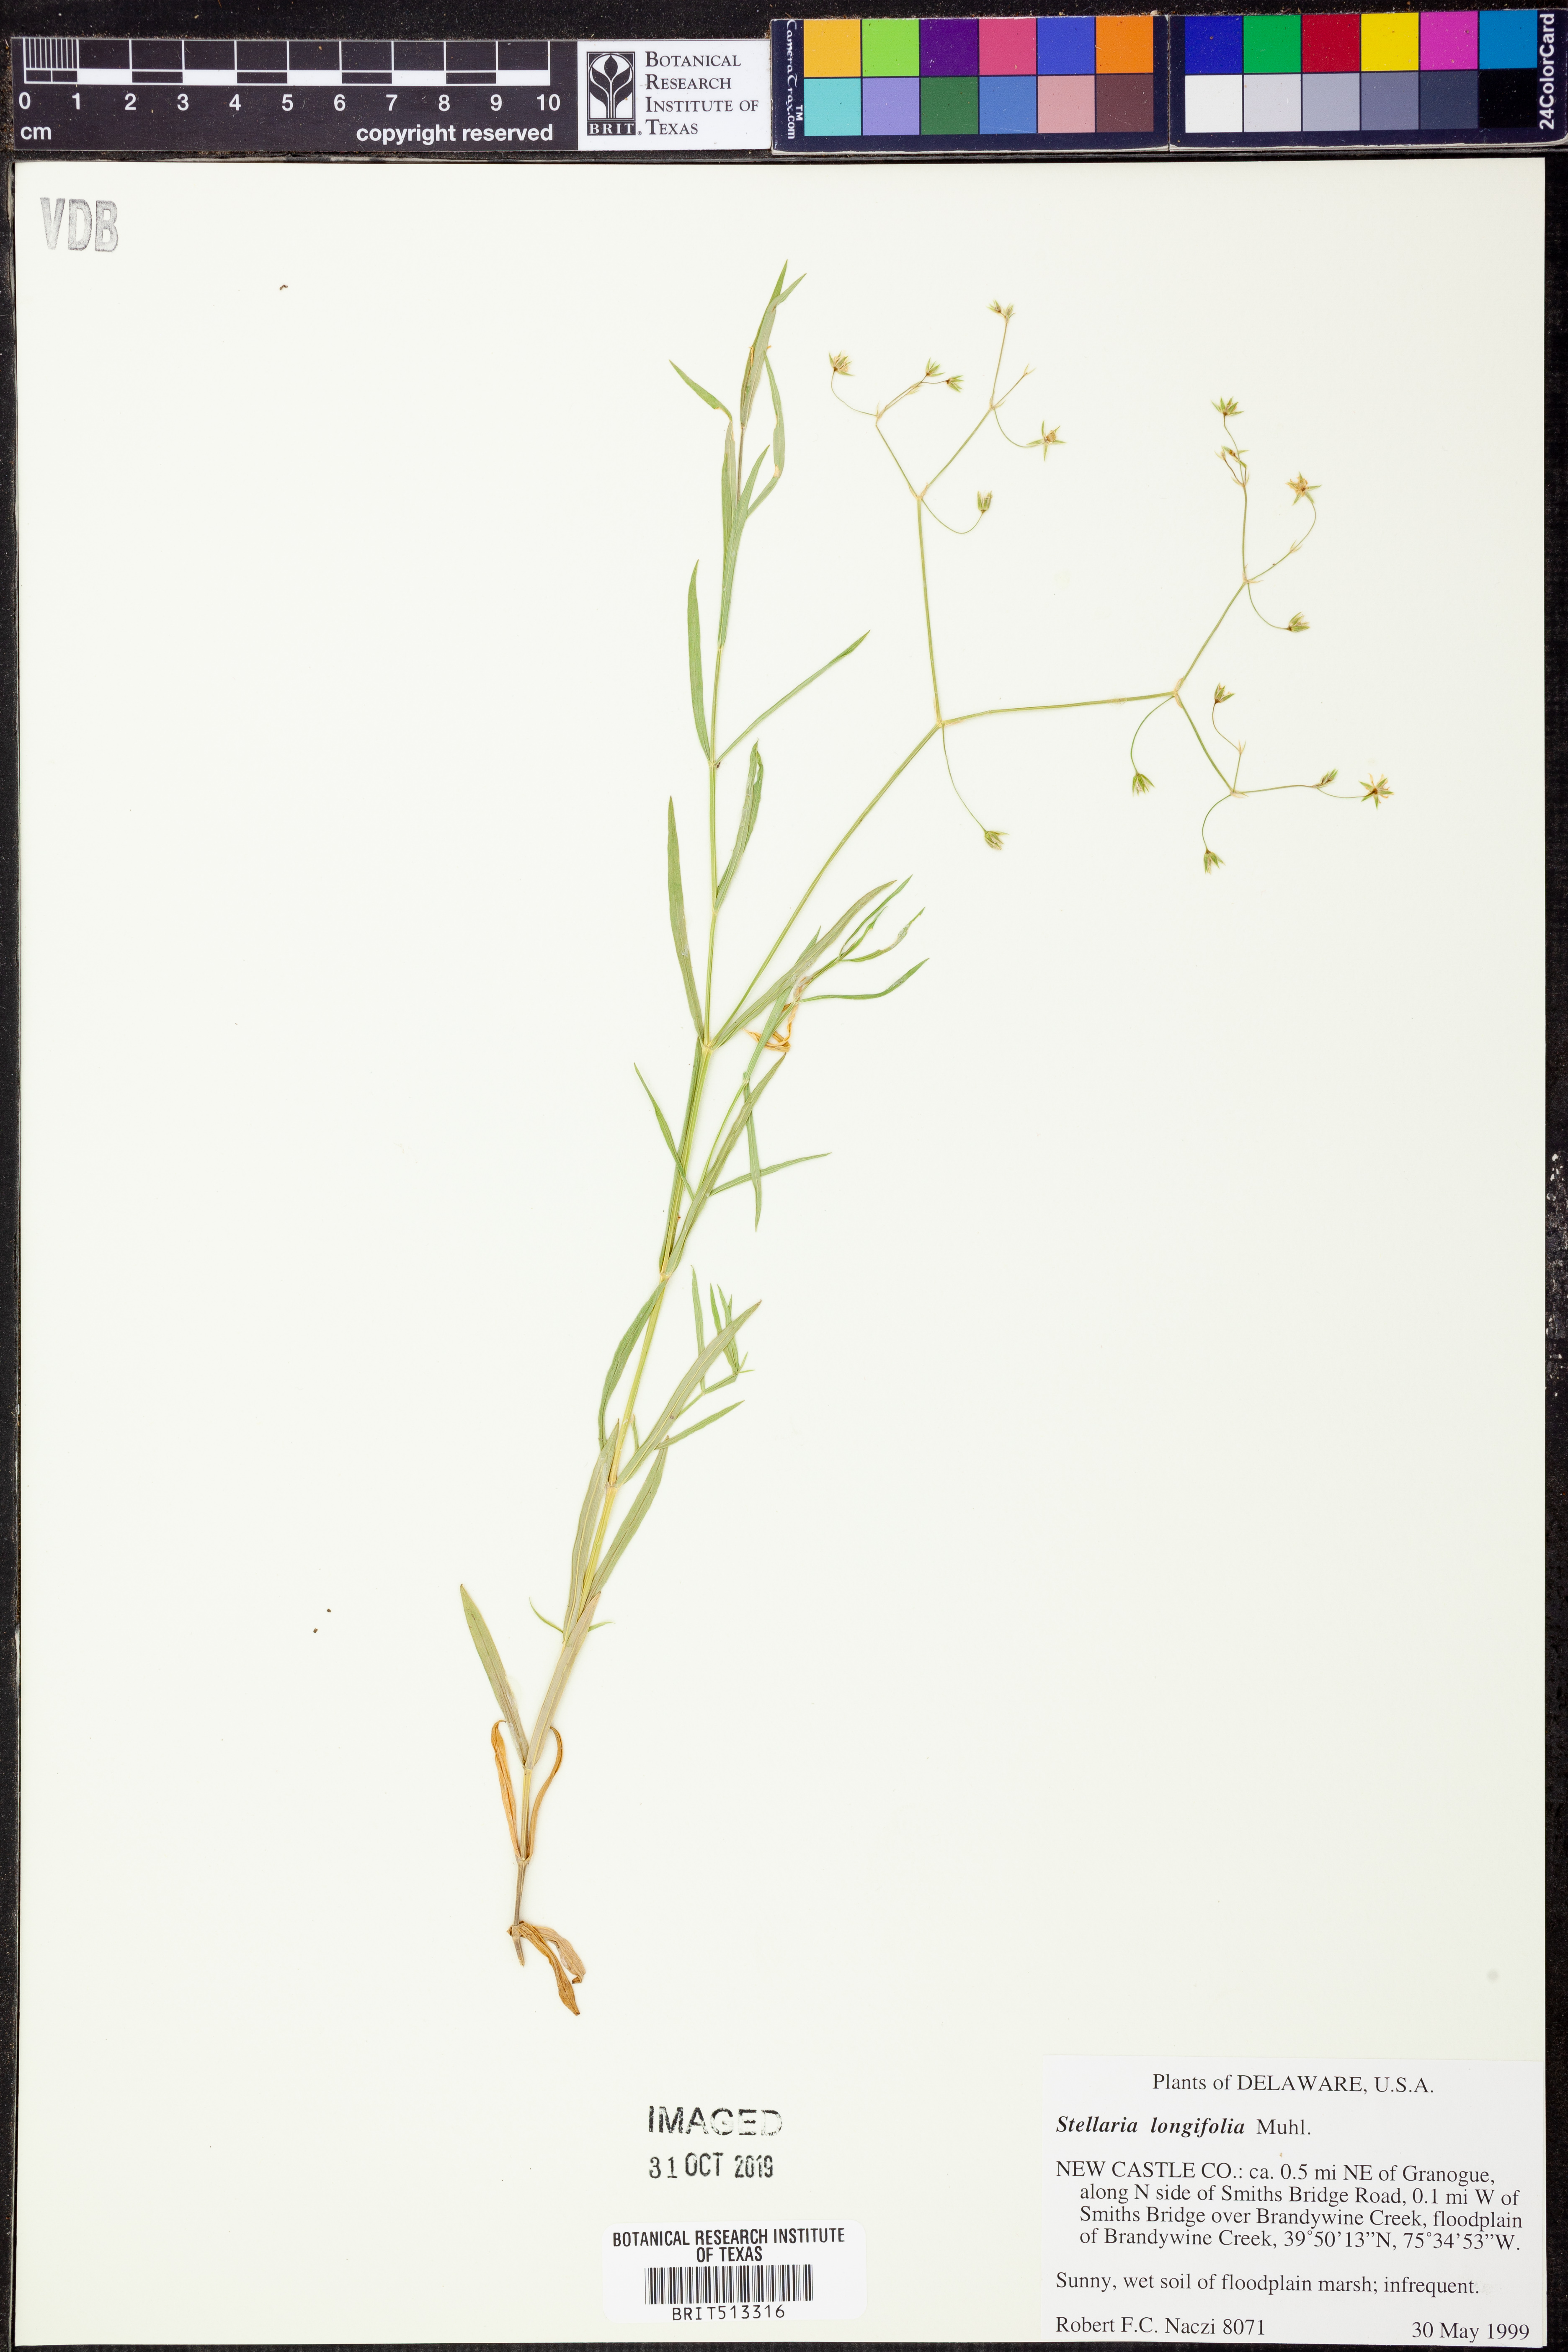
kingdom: Plantae
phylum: Tracheophyta
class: Magnoliopsida
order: Caryophyllales
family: Caryophyllaceae
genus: Stellaria
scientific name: Stellaria longifolia
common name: Long-leaved chickweed
